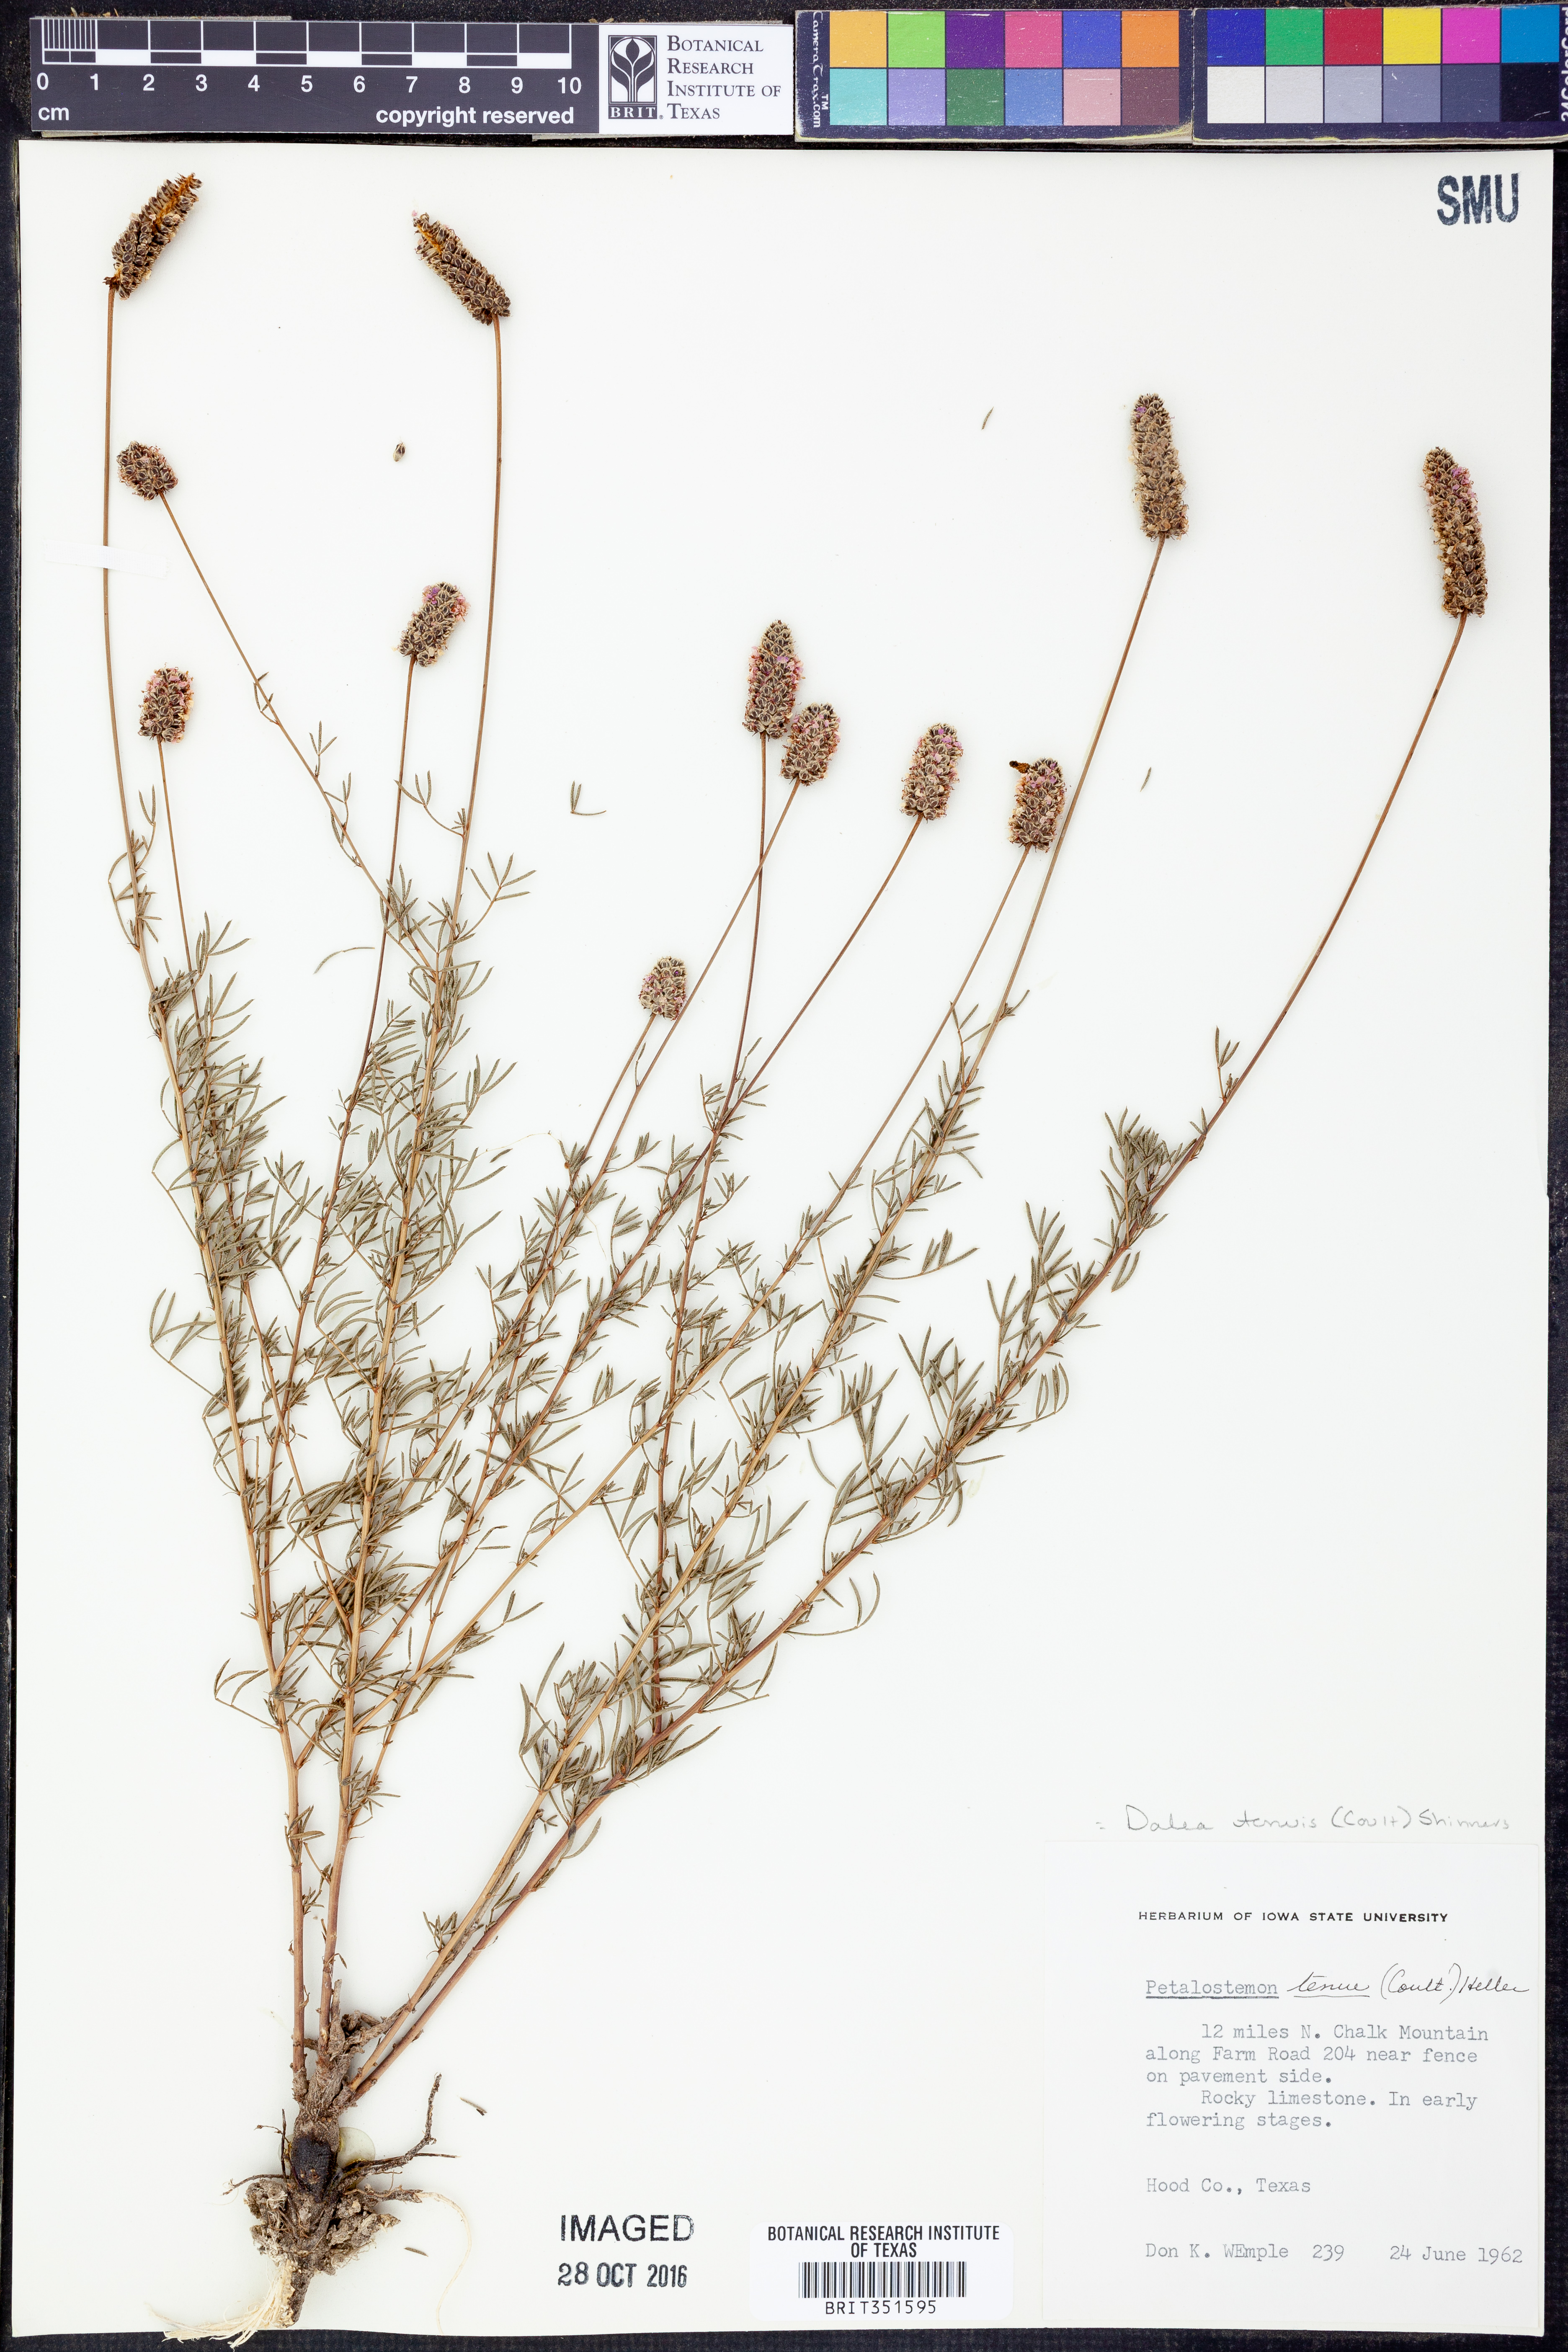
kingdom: Plantae
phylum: Tracheophyta
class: Magnoliopsida
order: Fabales
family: Fabaceae
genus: Dalea
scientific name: Dalea tenuis
